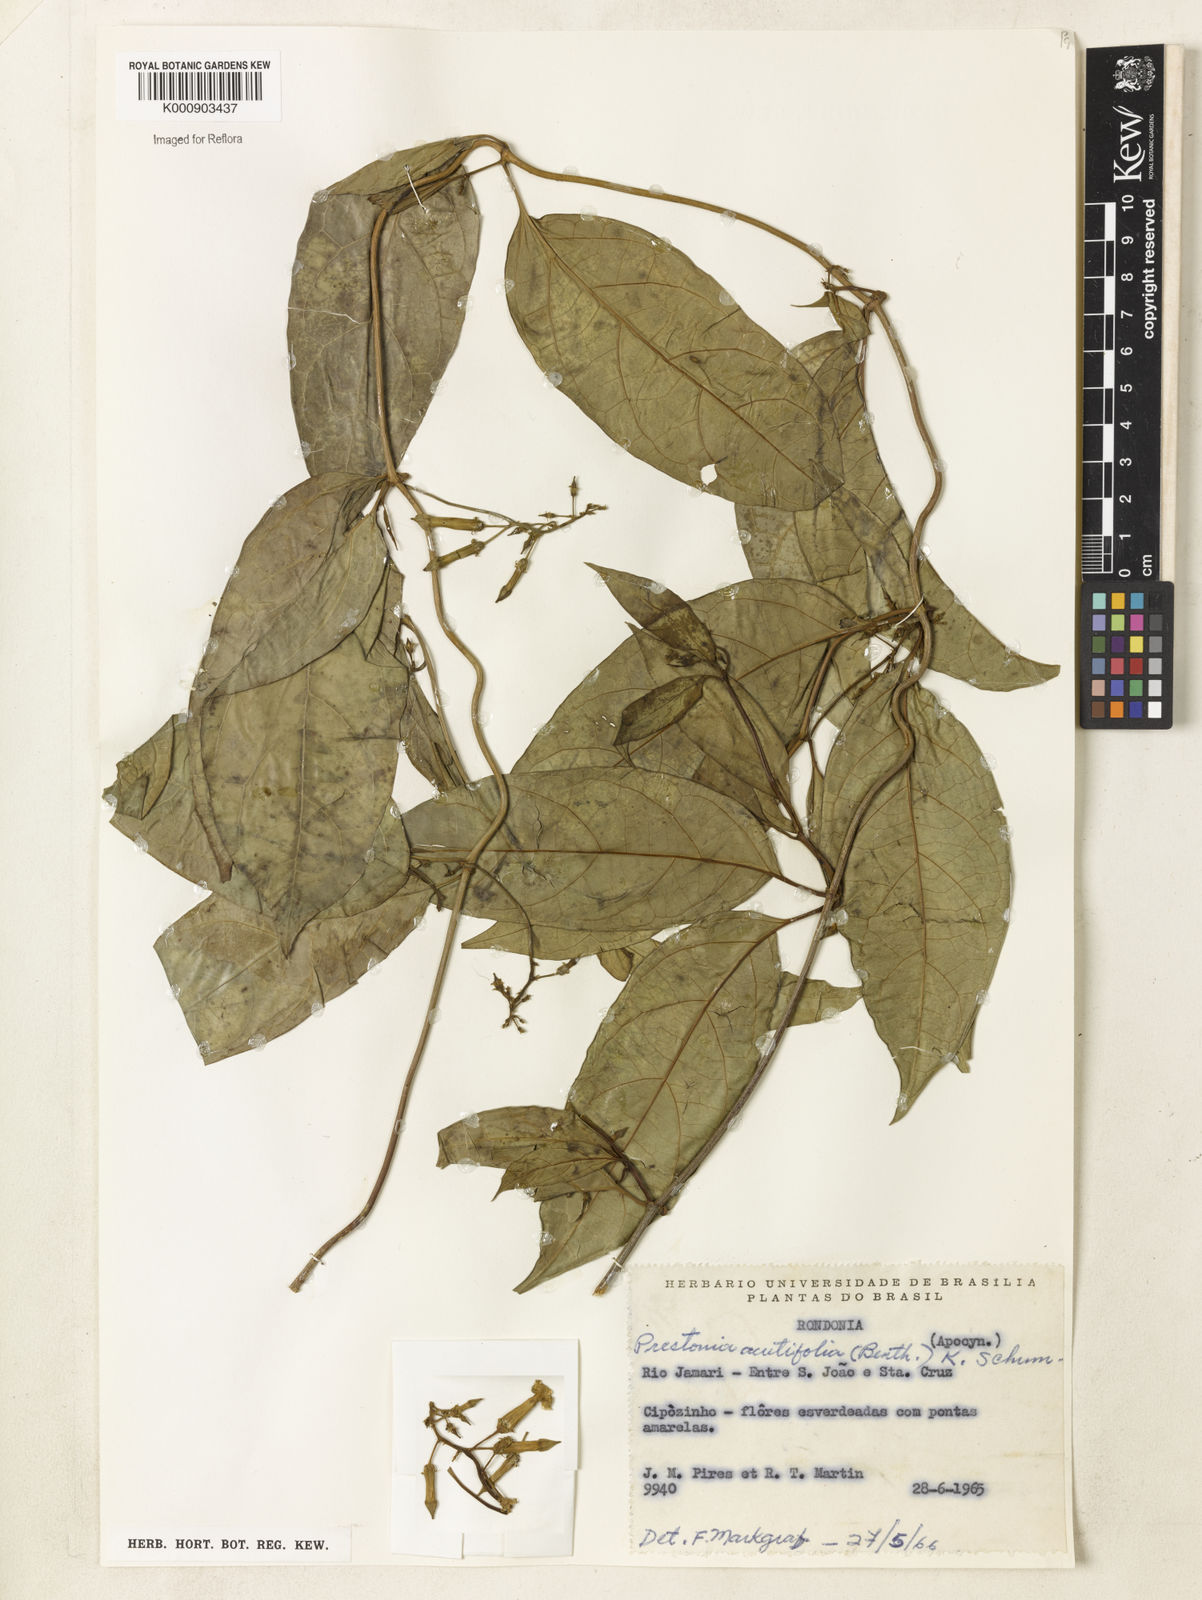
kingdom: Plantae
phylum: Tracheophyta
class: Magnoliopsida
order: Gentianales
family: Apocynaceae
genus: Prestonia
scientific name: Prestonia quinquangularis
